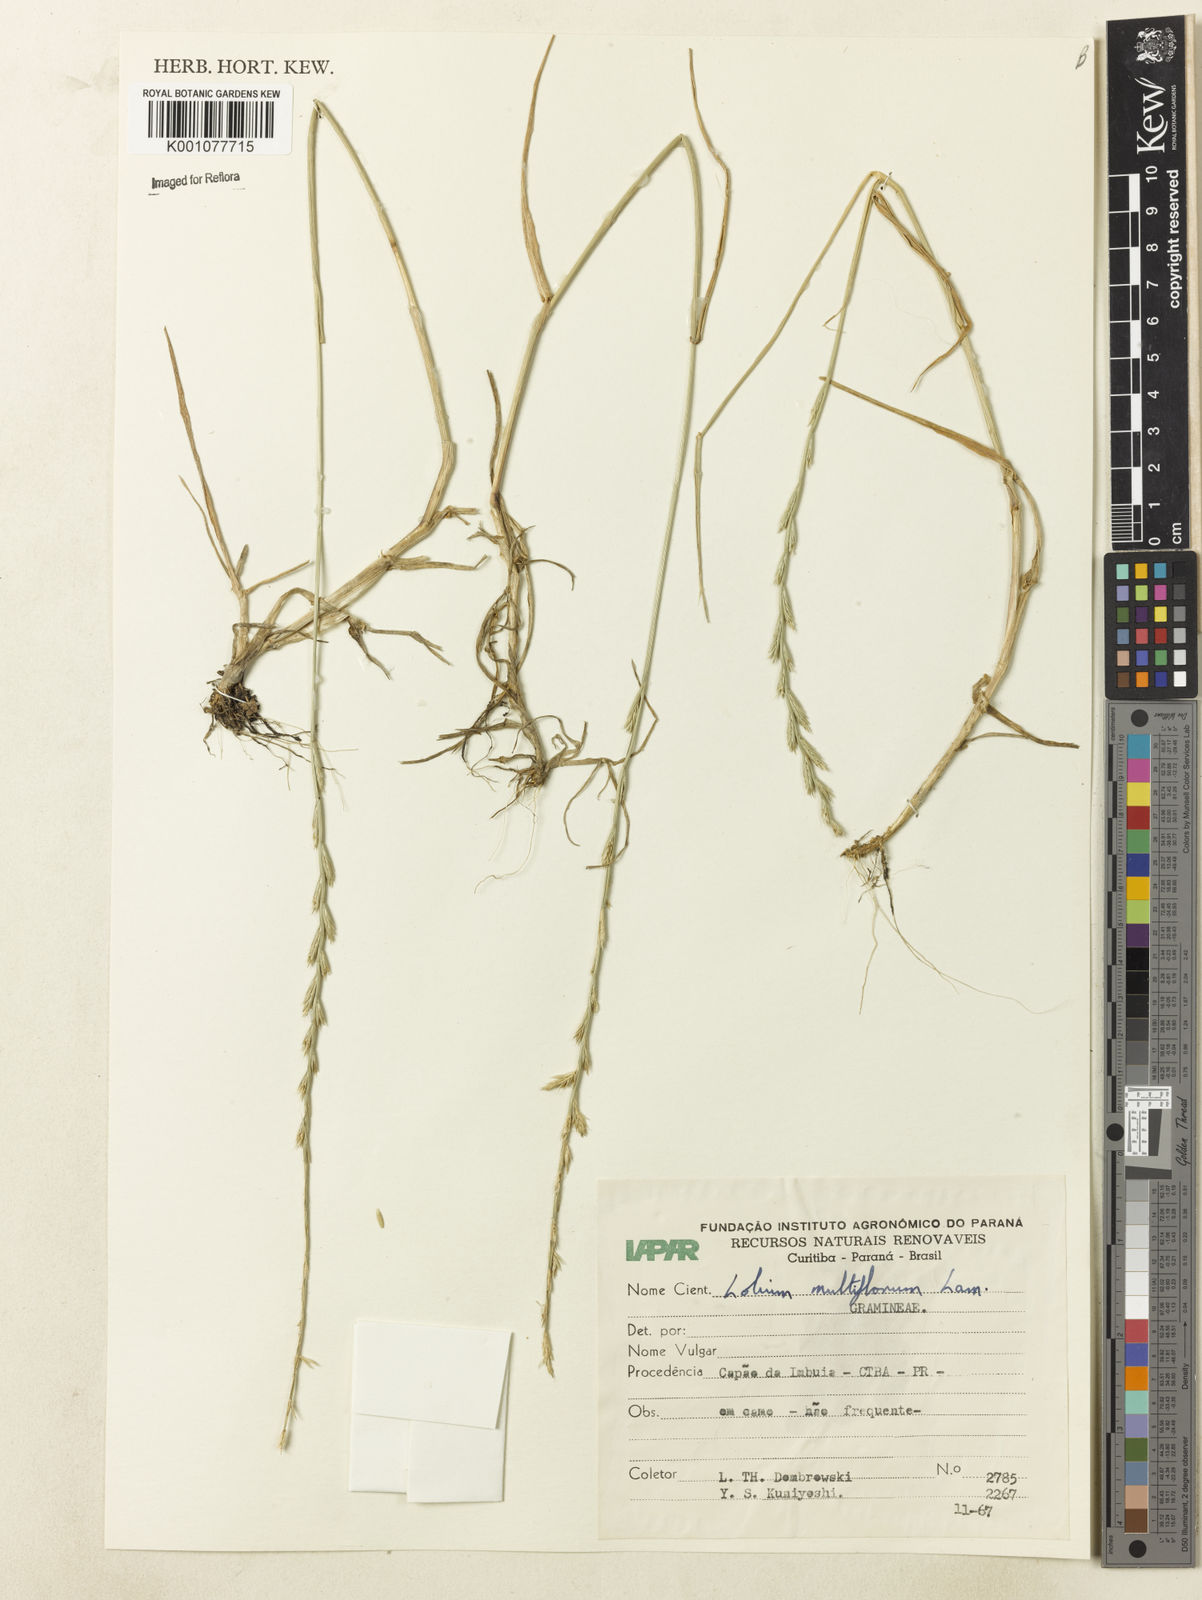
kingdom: Plantae
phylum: Tracheophyta
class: Liliopsida
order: Poales
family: Poaceae
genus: Lolium
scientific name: Lolium multiflorum
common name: Annual ryegrass
